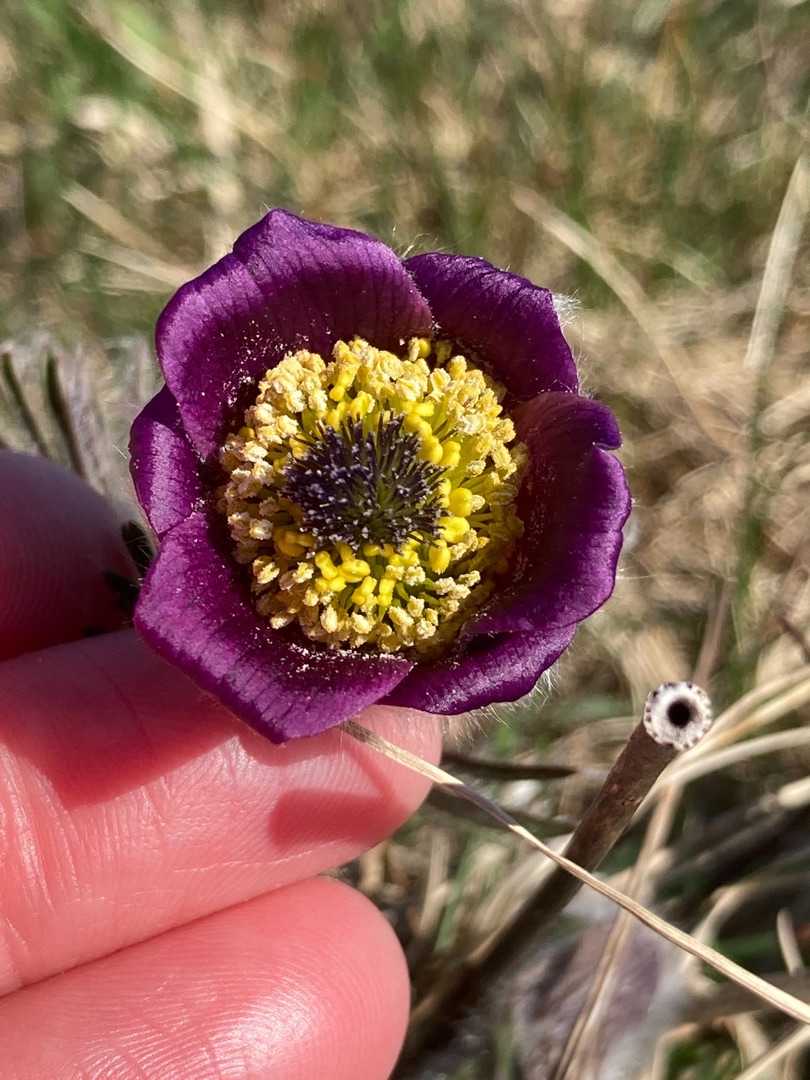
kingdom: Plantae
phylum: Tracheophyta
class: Magnoliopsida
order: Ranunculales
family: Ranunculaceae
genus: Pulsatilla
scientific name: Pulsatilla pratensis
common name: Nikkende kobjælde
